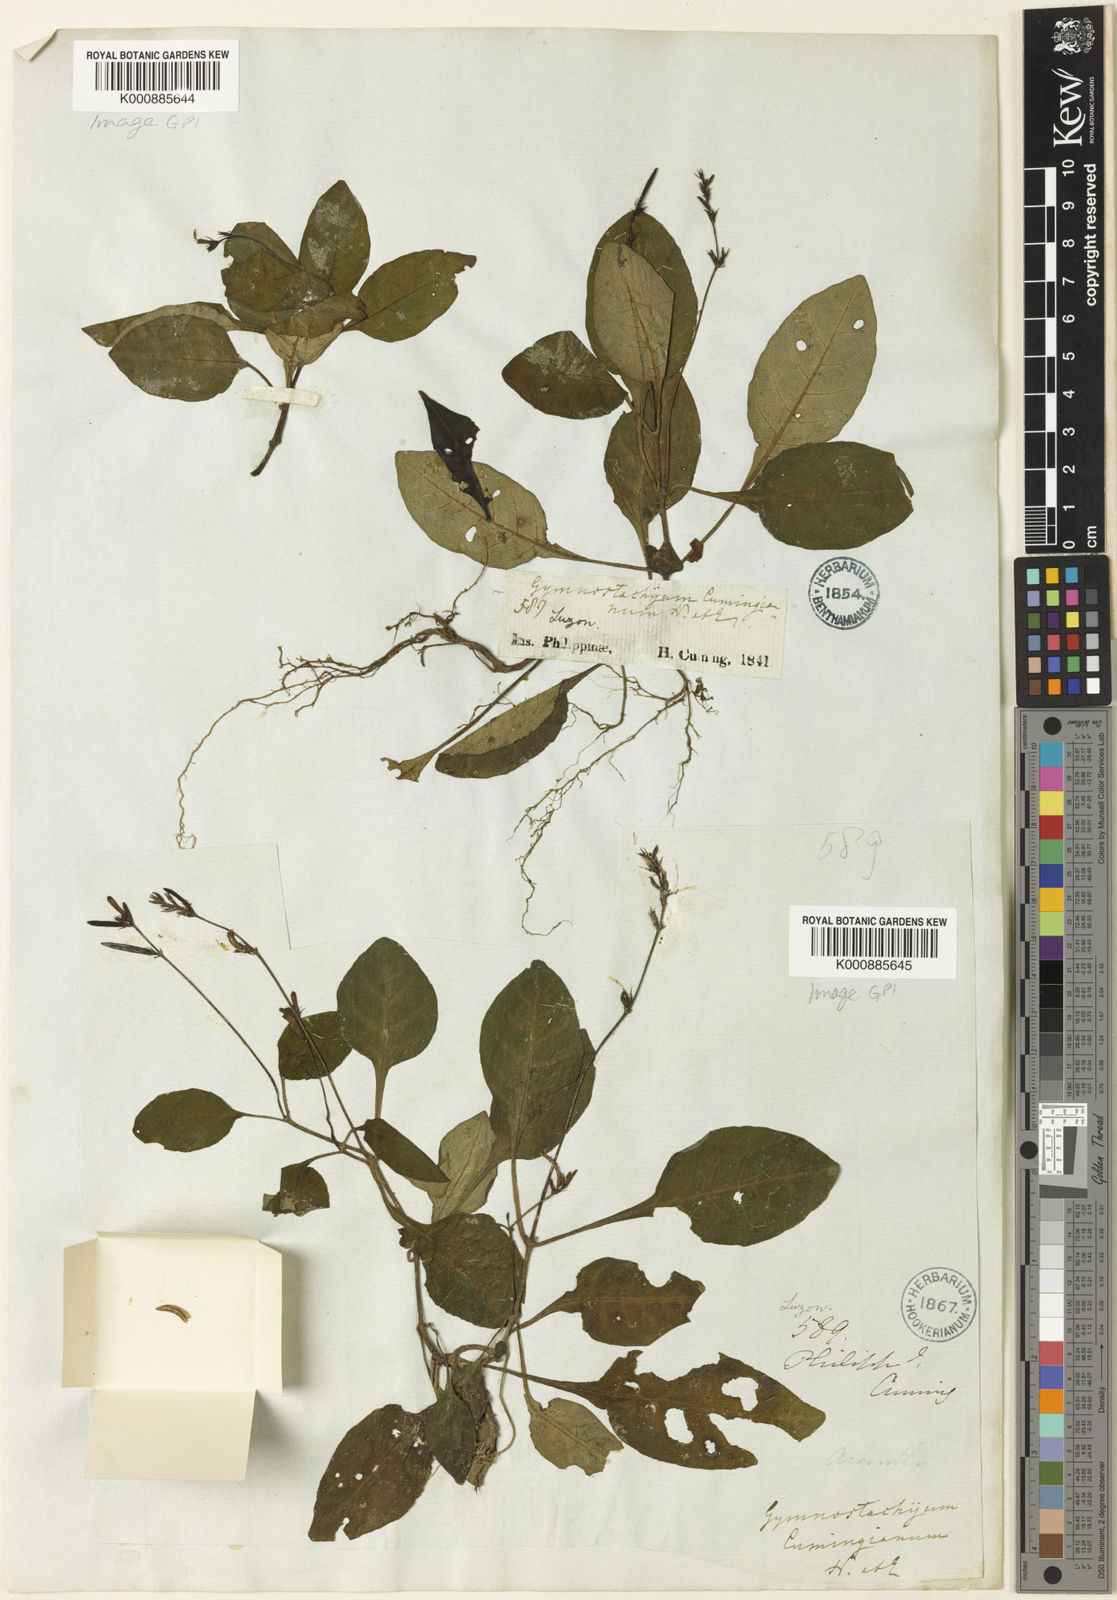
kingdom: Plantae
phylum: Tracheophyta
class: Magnoliopsida
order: Lamiales
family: Acanthaceae
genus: Gymnostachyum
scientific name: Gymnostachyum cumingianum
